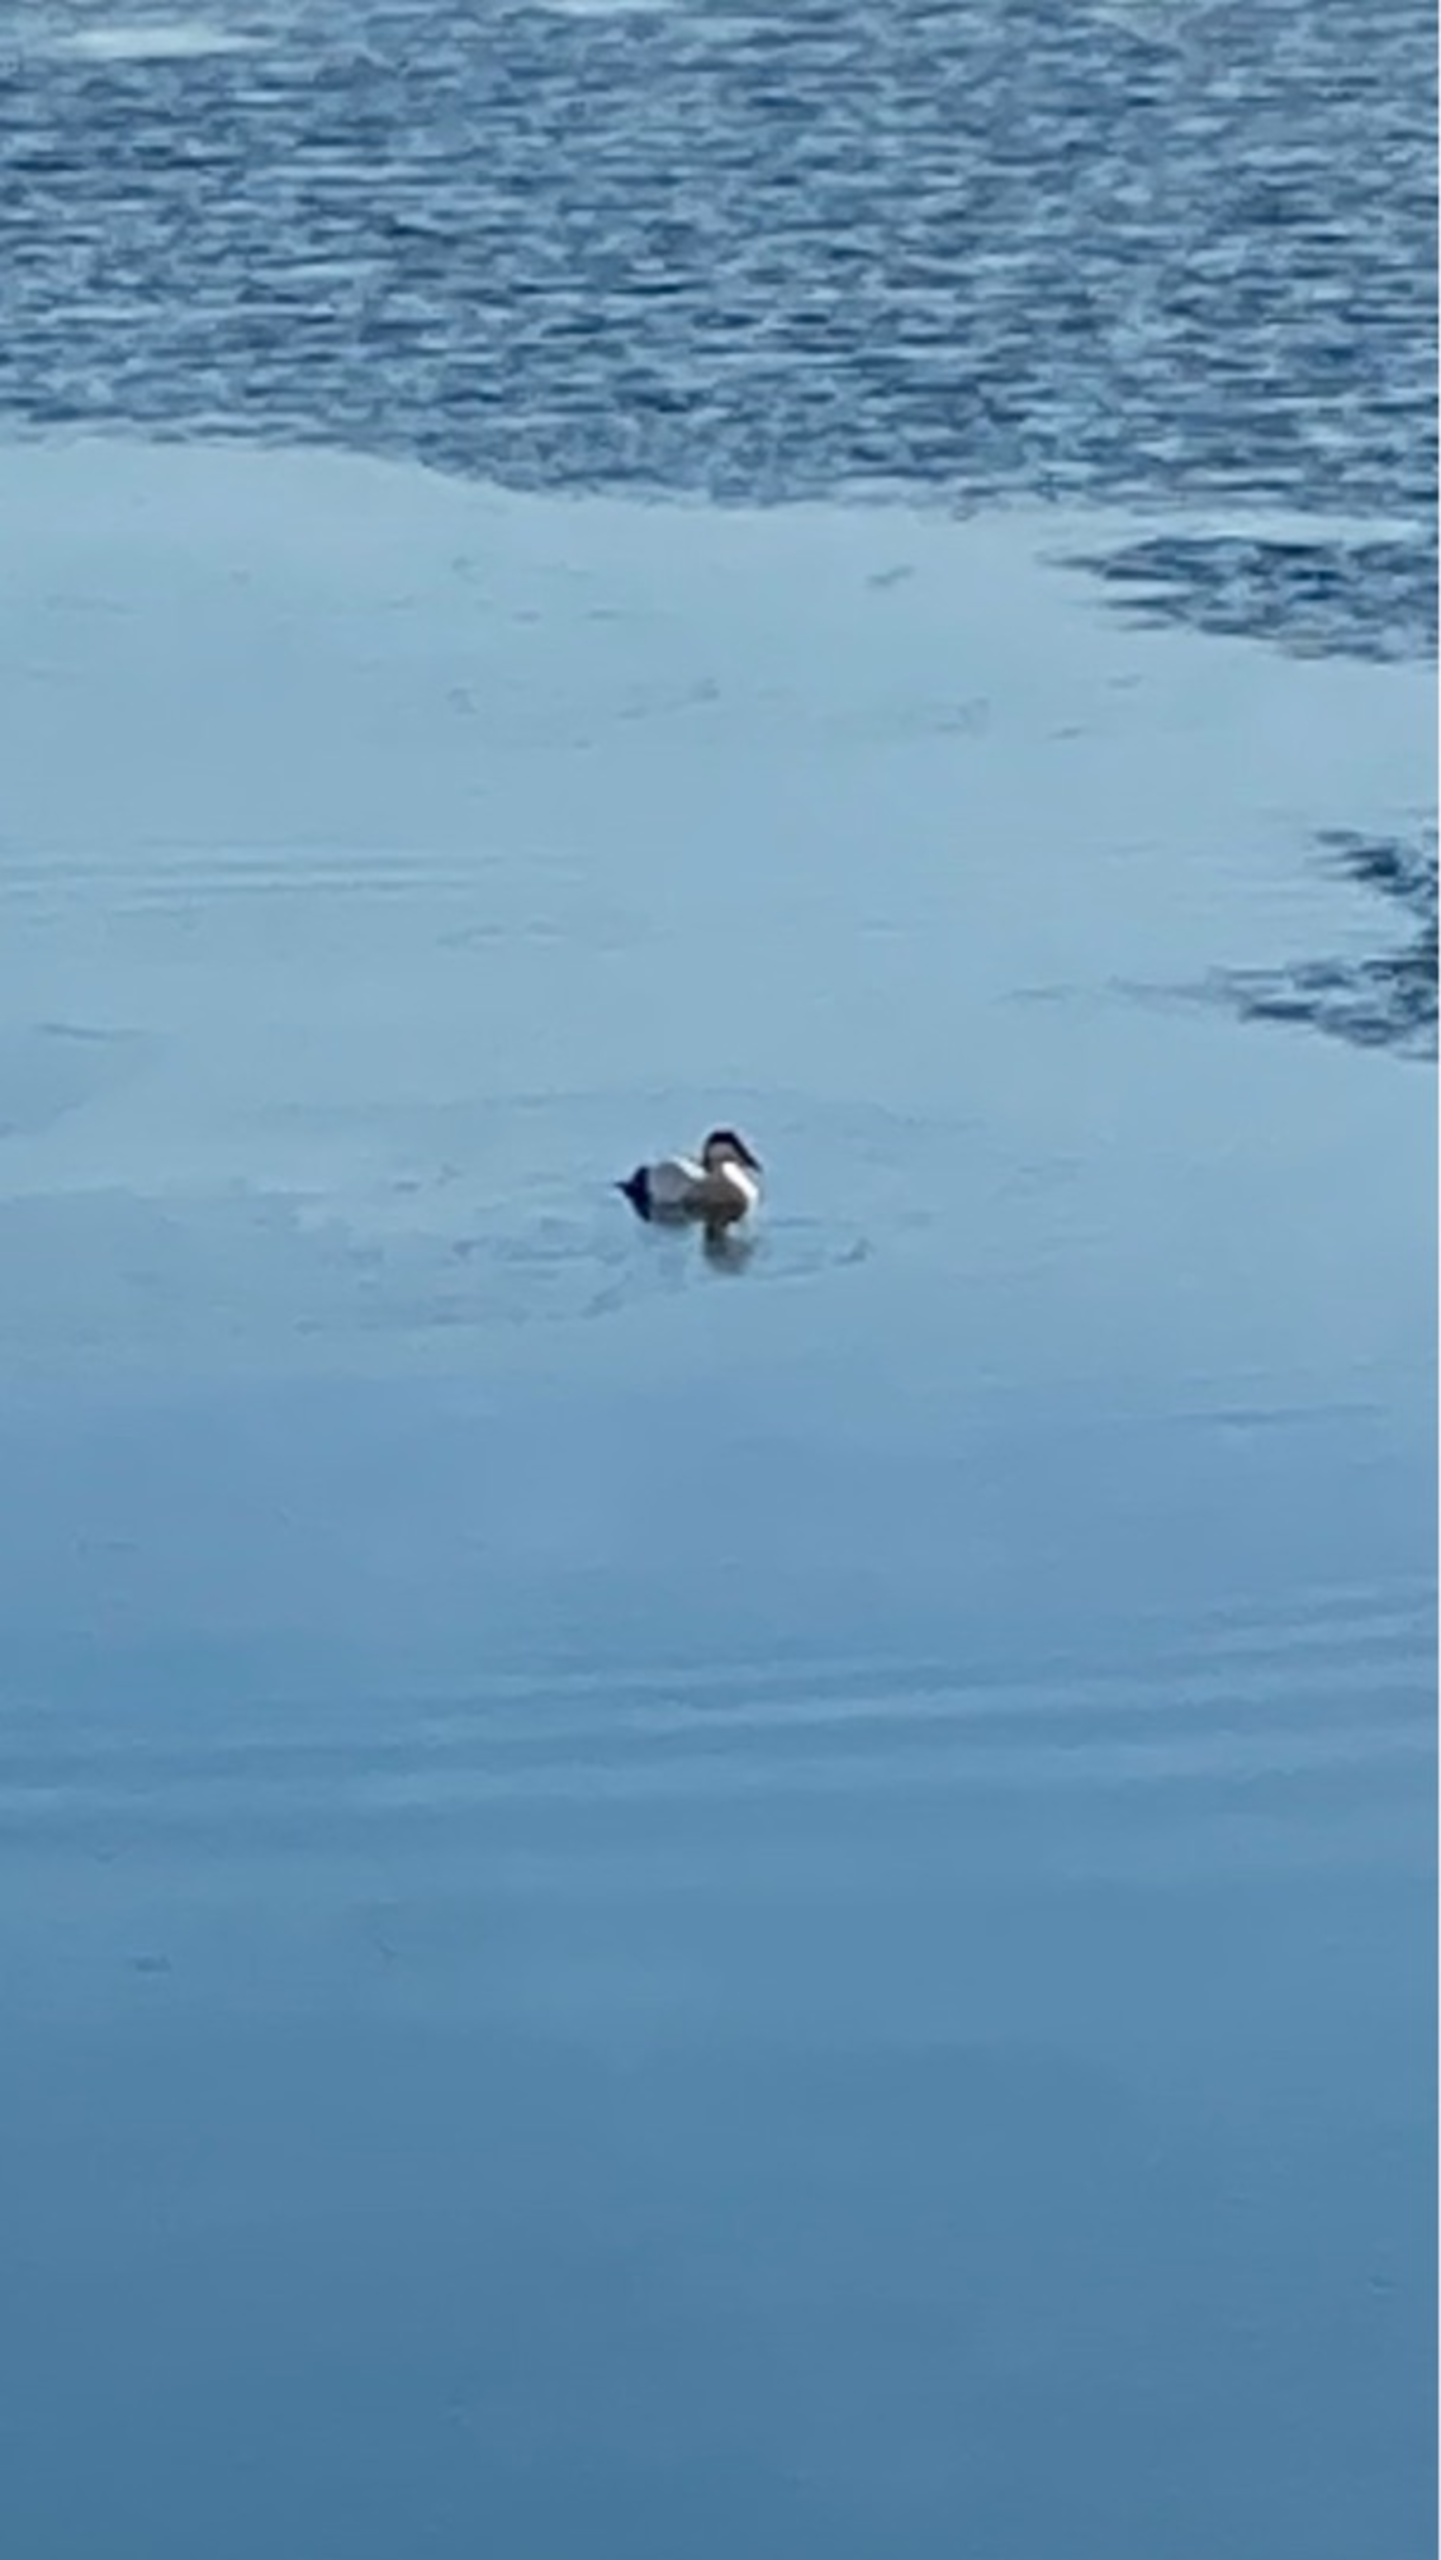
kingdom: Animalia
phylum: Chordata
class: Aves
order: Anseriformes
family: Anatidae
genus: Somateria
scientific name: Somateria mollissima
